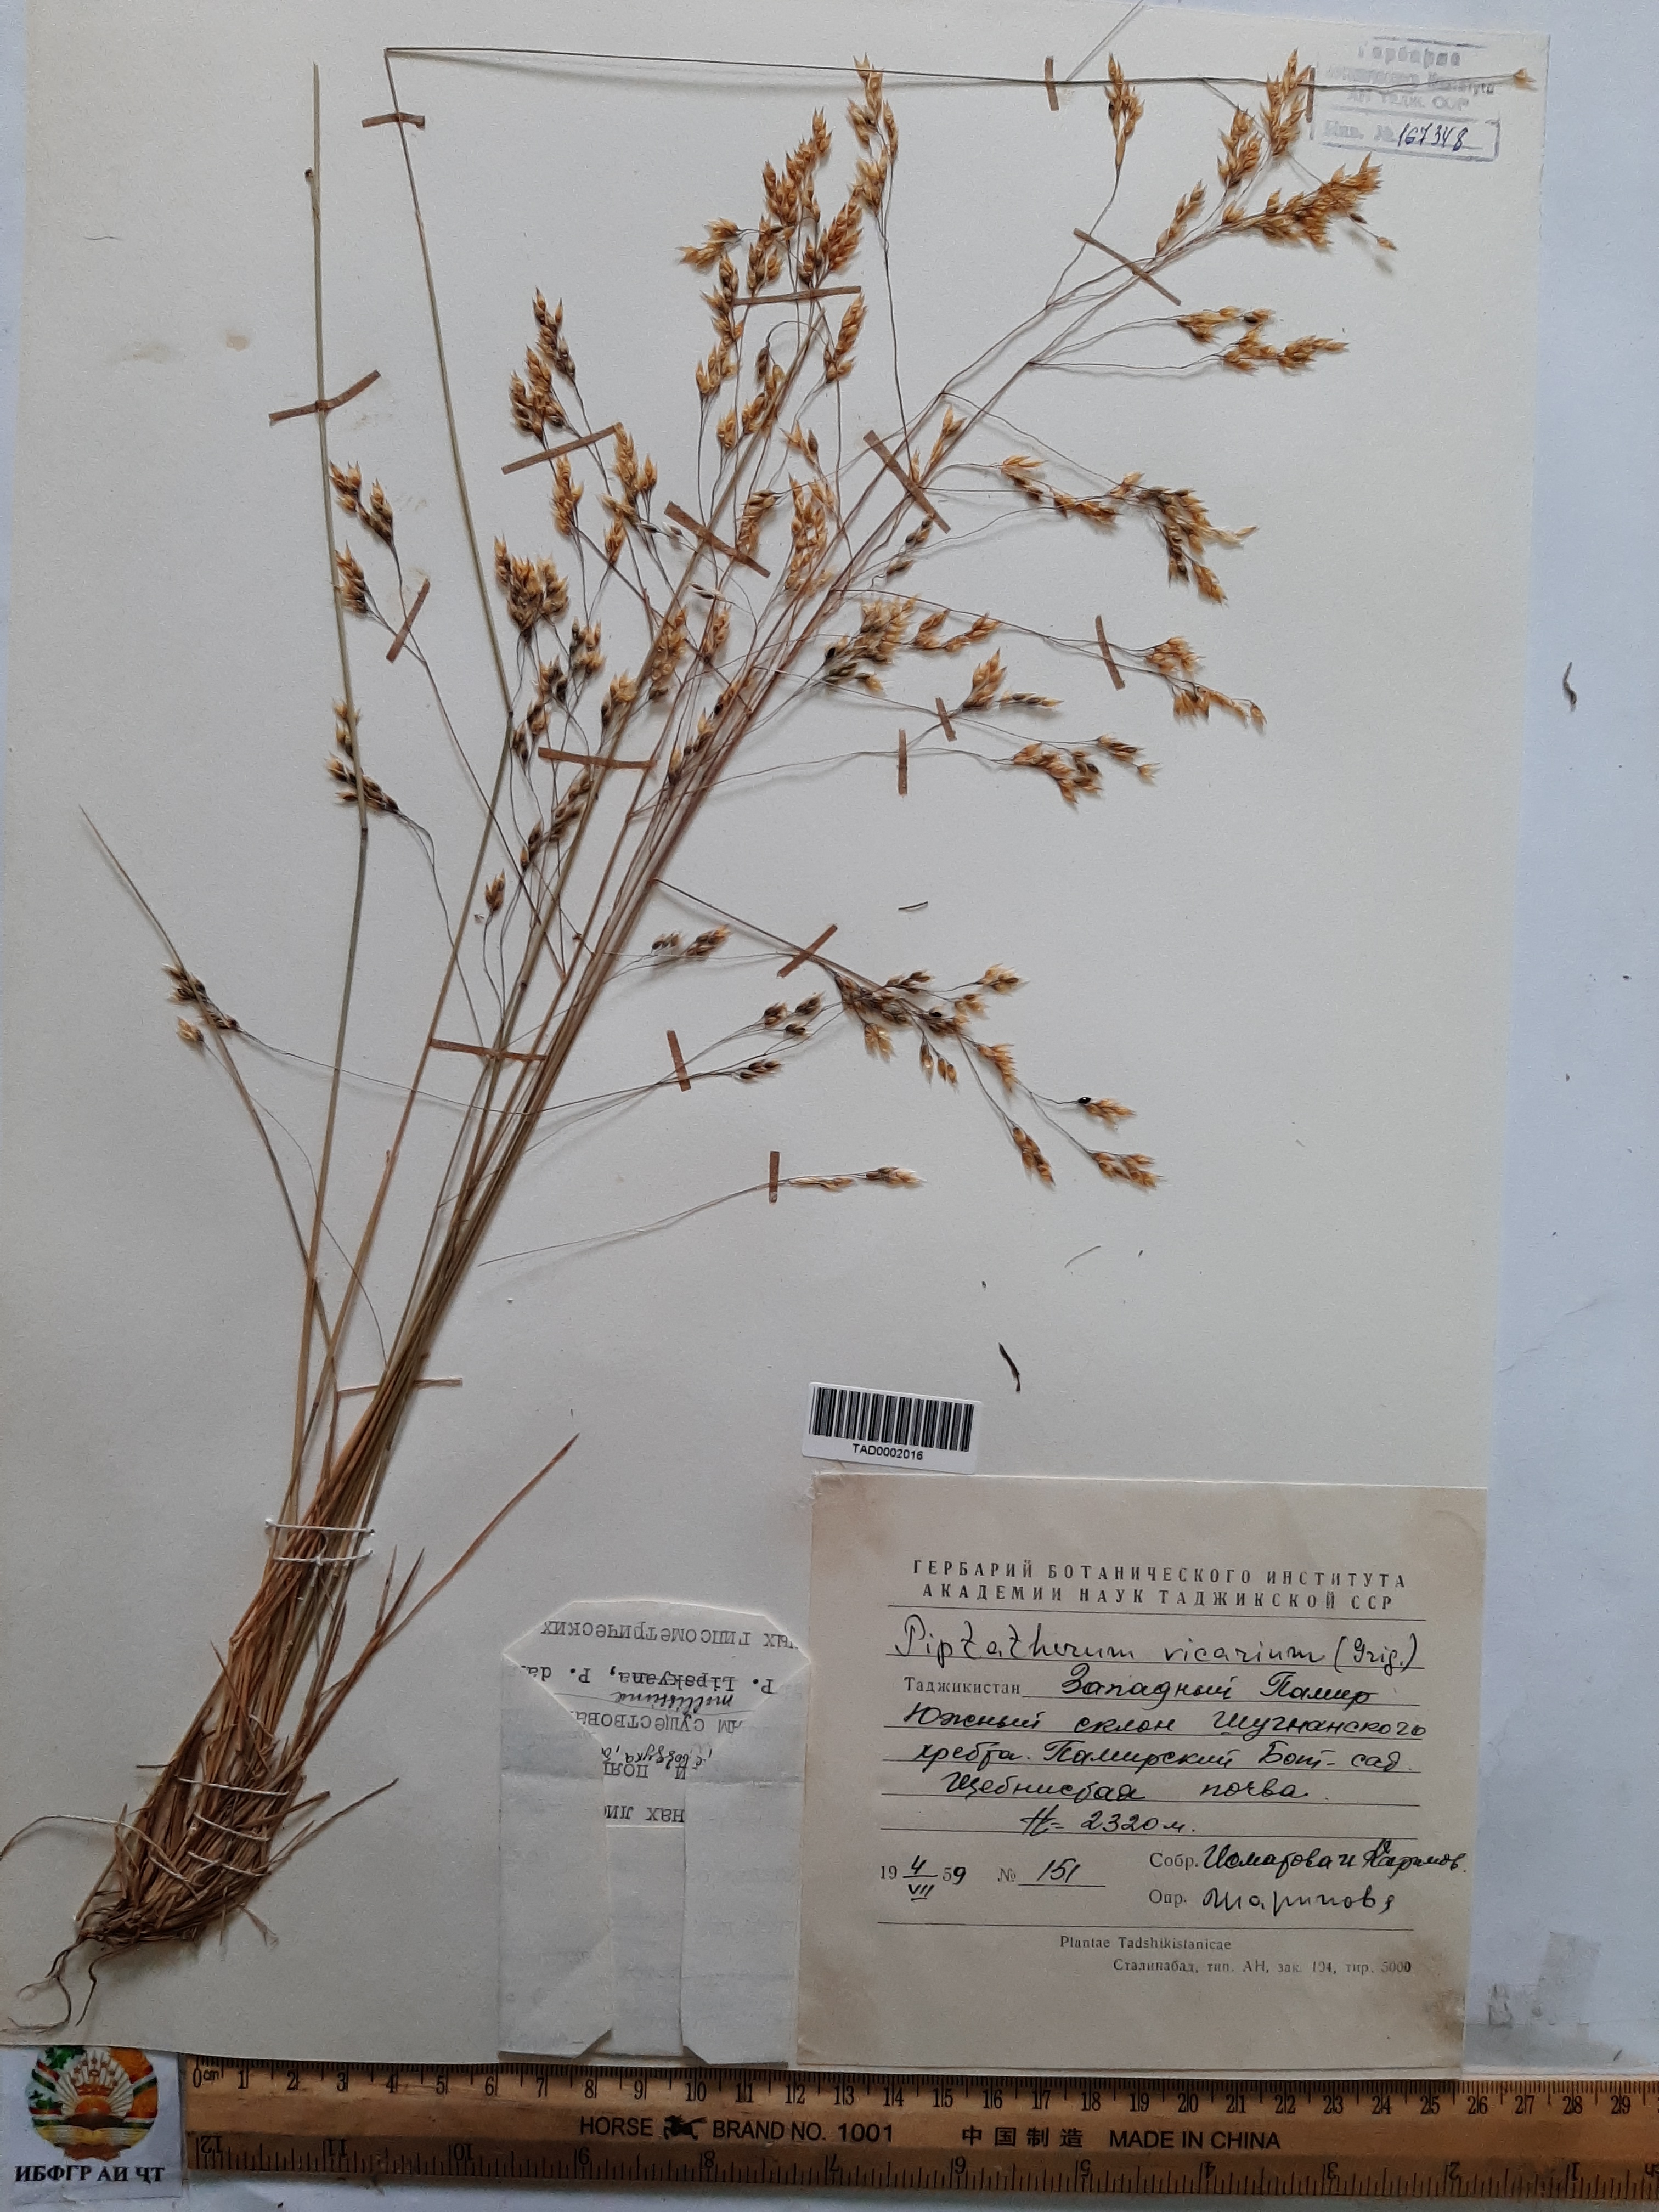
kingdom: Plantae
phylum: Tracheophyta
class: Liliopsida
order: Poales
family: Poaceae
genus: Piptatherum
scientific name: Piptatherum microcarpum
